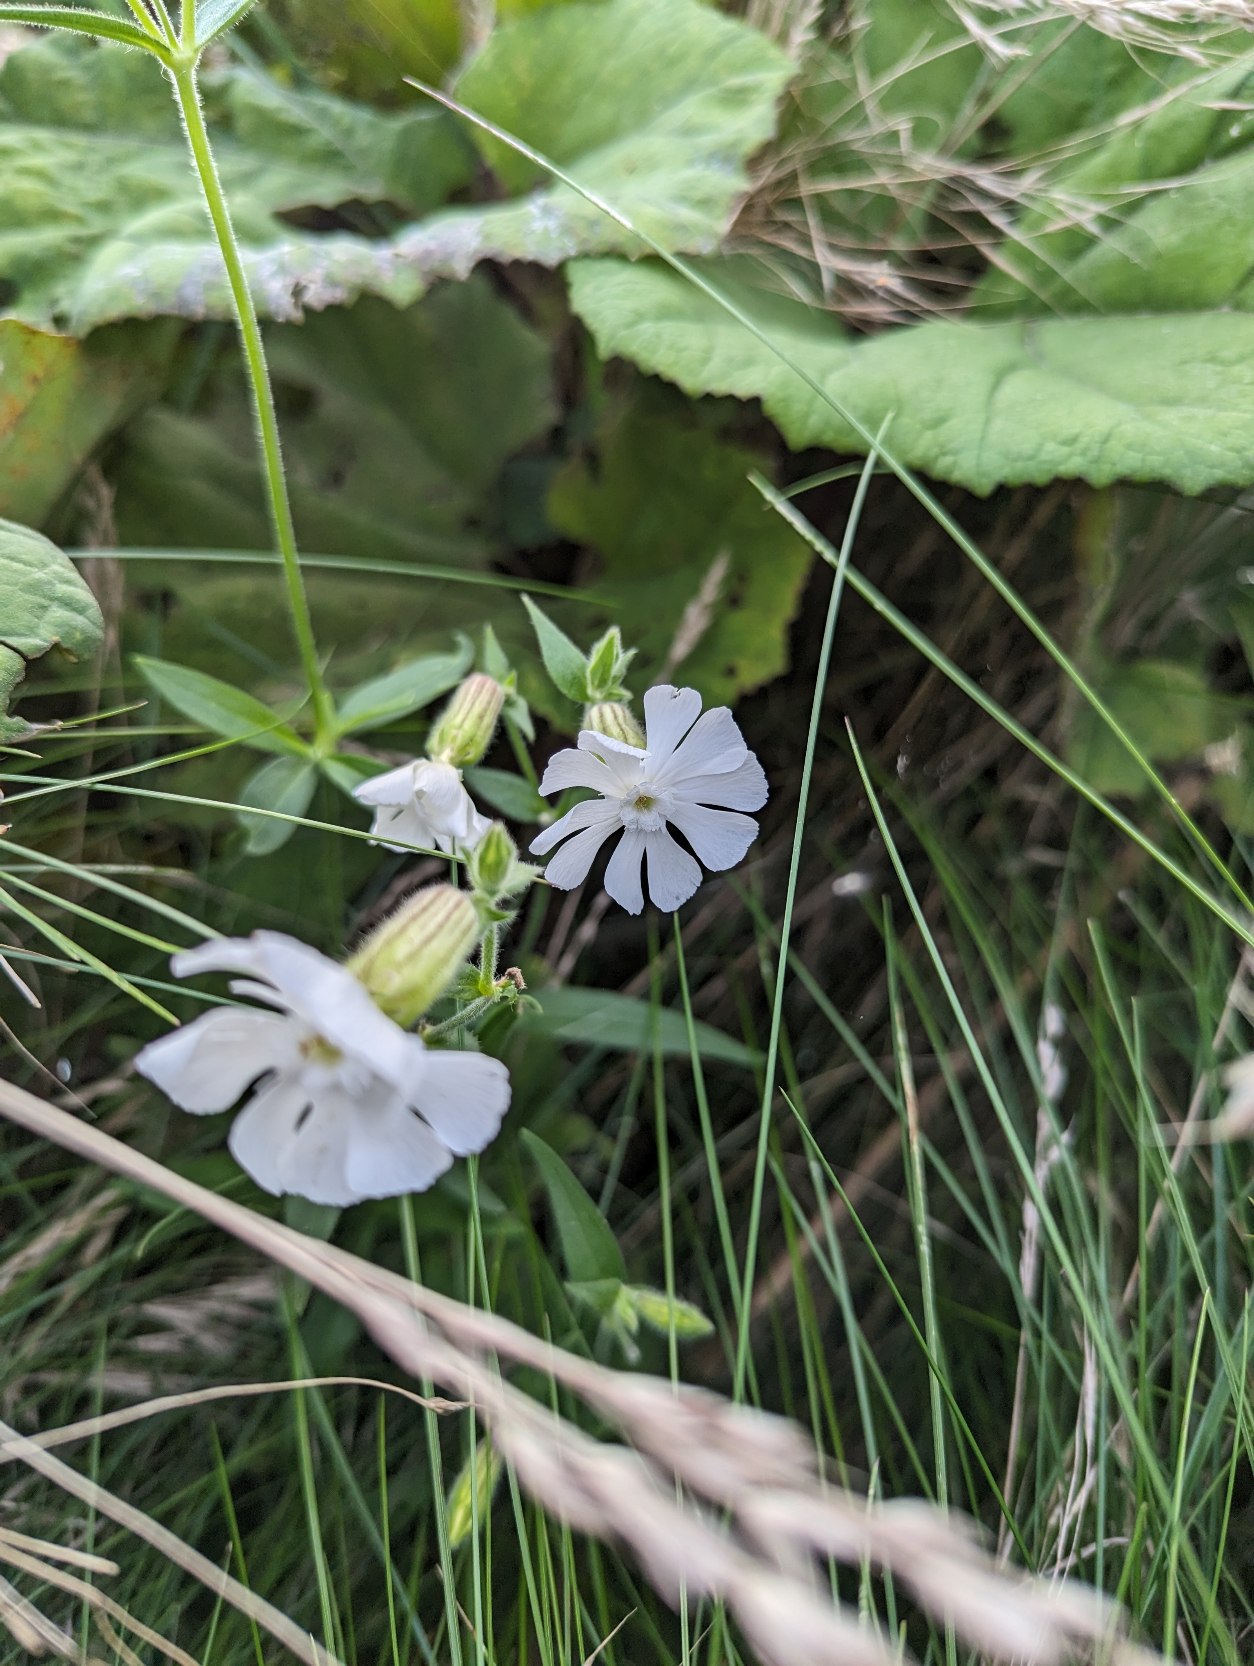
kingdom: Plantae
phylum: Tracheophyta
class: Magnoliopsida
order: Caryophyllales
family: Caryophyllaceae
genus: Silene
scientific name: Silene latifolia
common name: Aftenpragtstjerne
